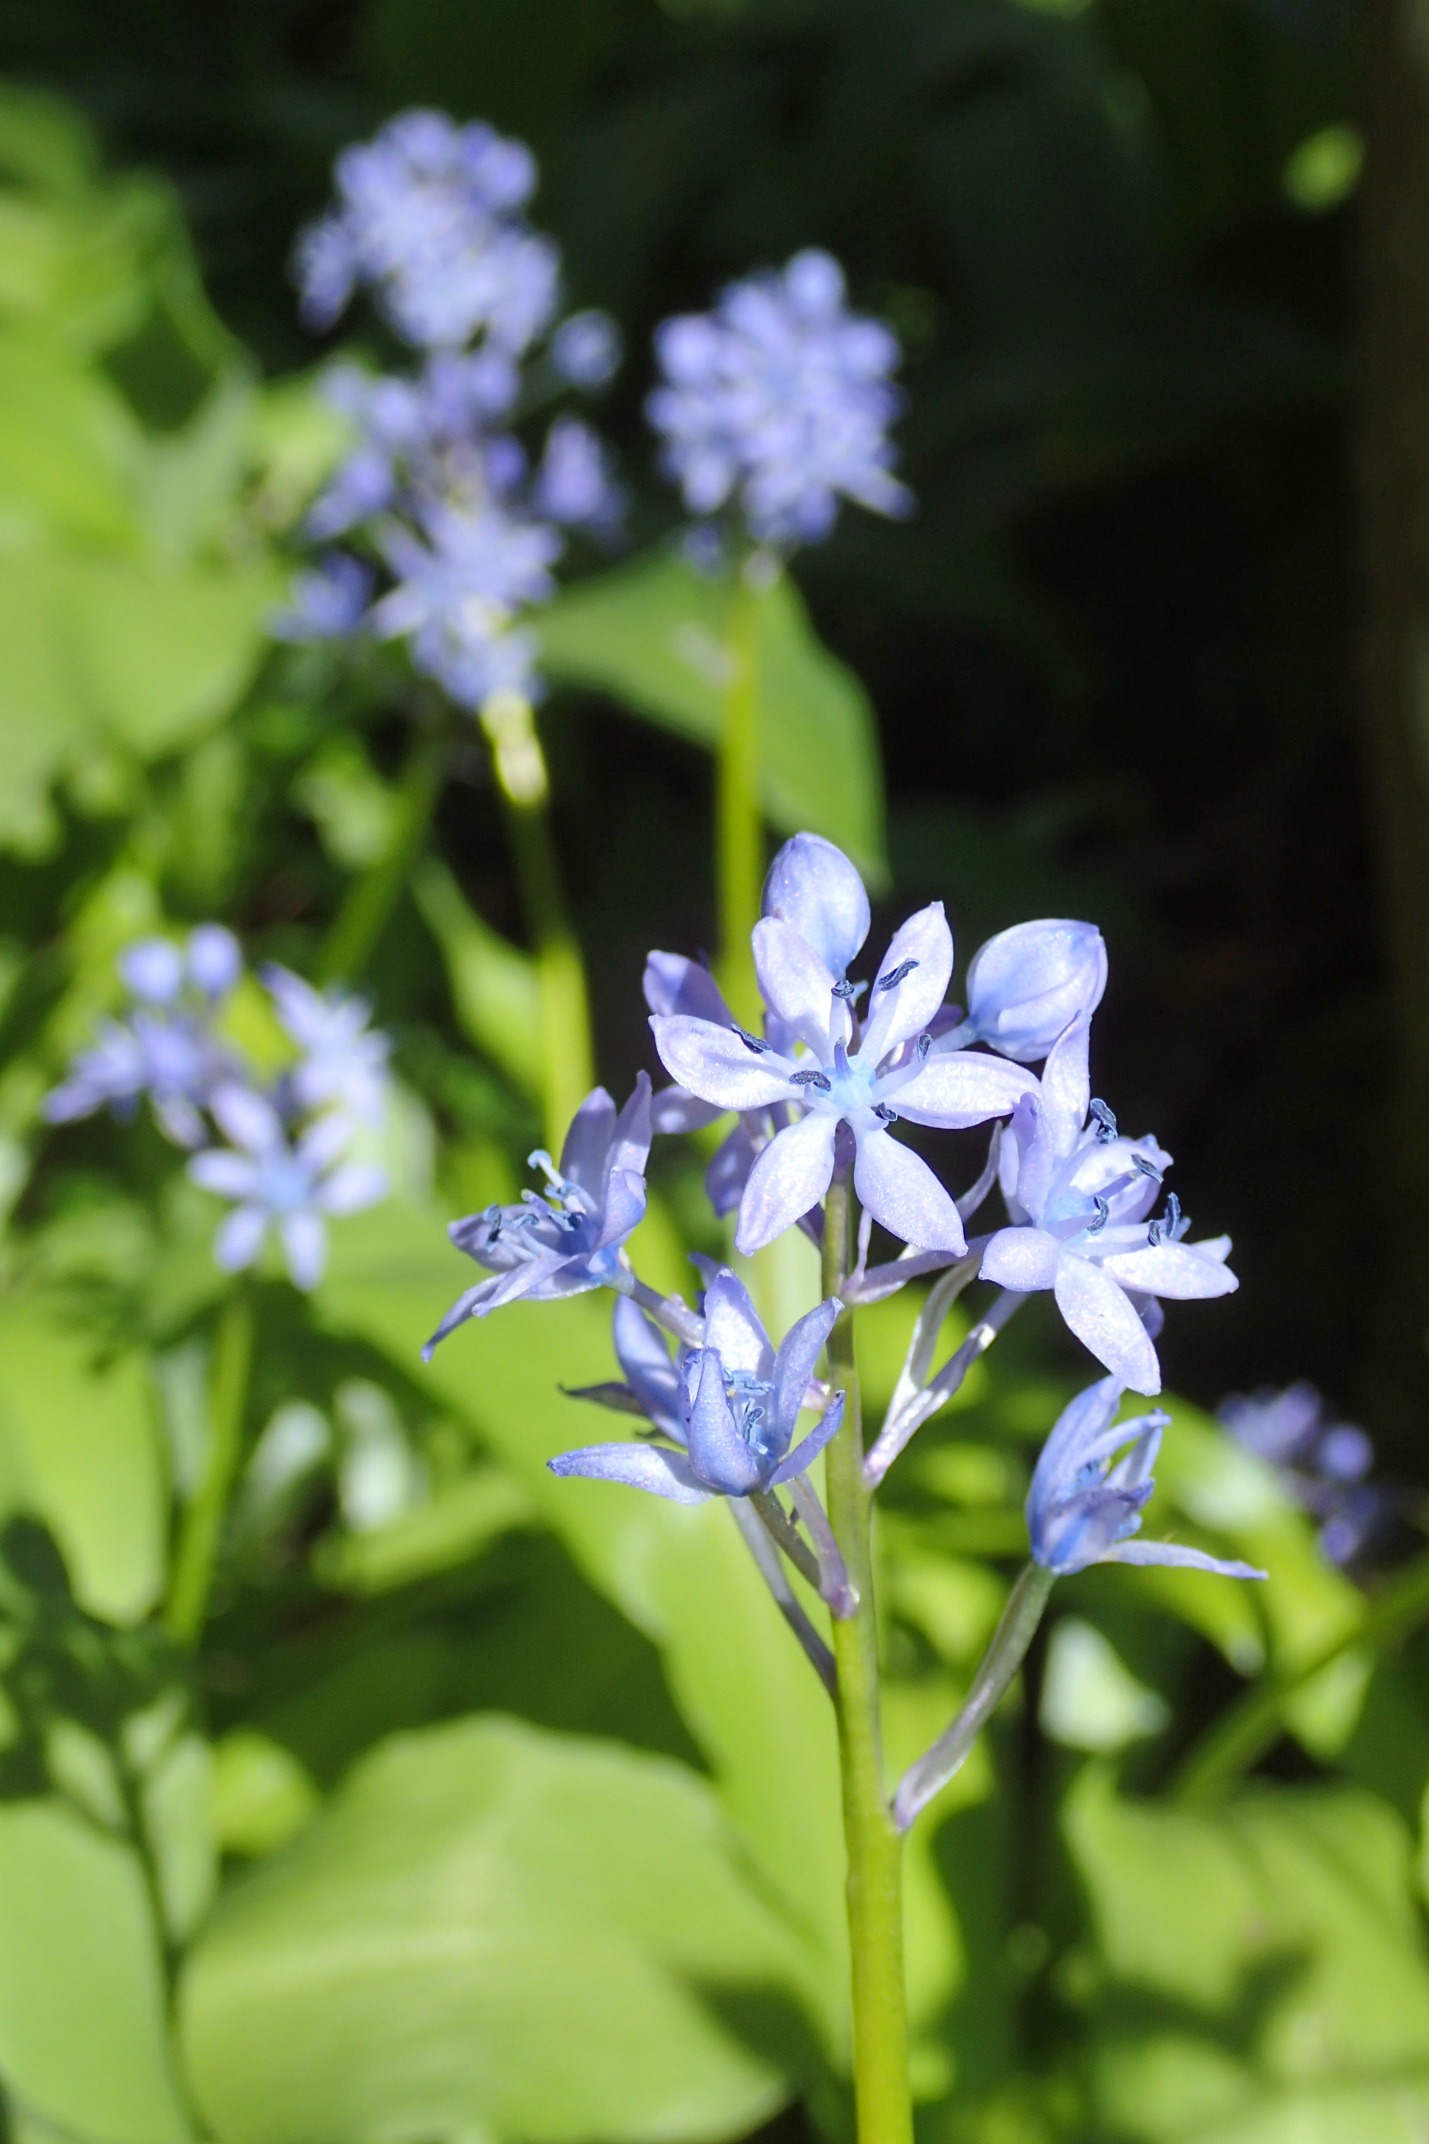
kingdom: Plantae
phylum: Tracheophyta
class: Liliopsida
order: Asparagales
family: Asparagaceae
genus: Hyacinthoides
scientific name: Hyacinthoides italica
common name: Italiensk skilla
